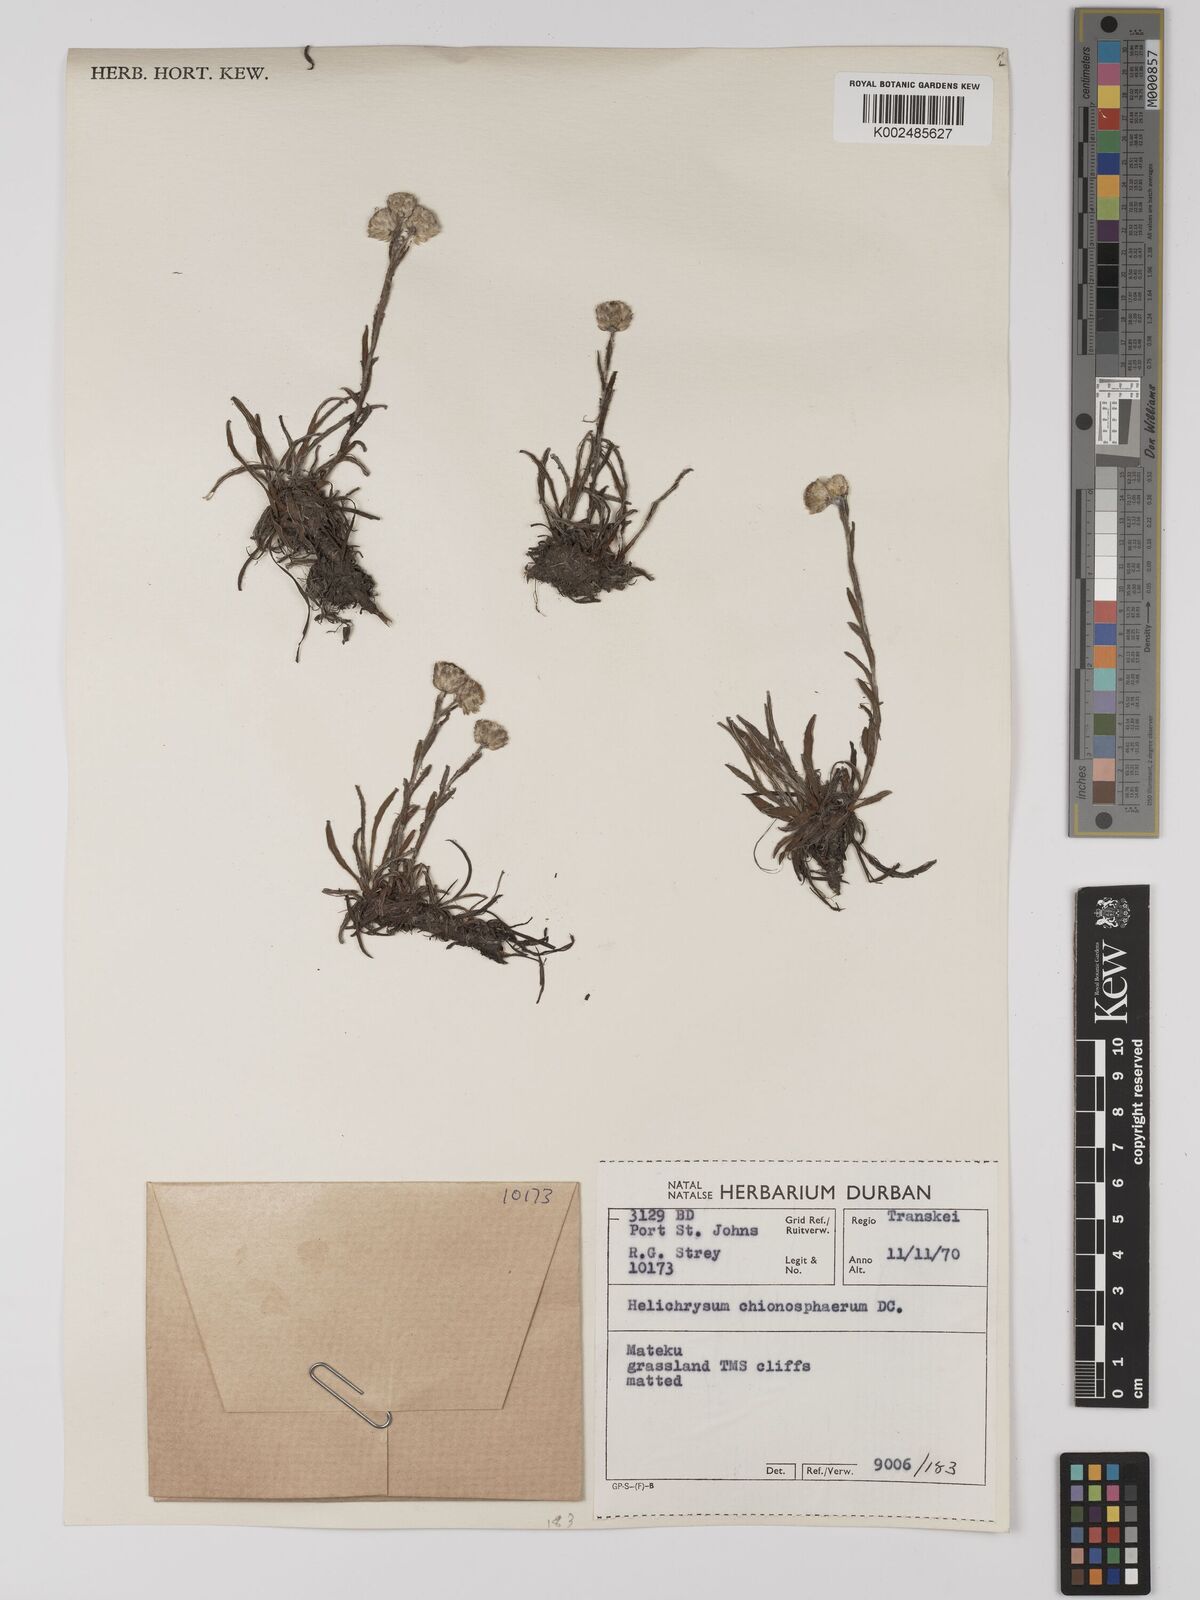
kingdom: Plantae
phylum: Tracheophyta
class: Magnoliopsida
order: Asterales
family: Asteraceae
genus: Helichrysum
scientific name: Helichrysum chionosphaerum
